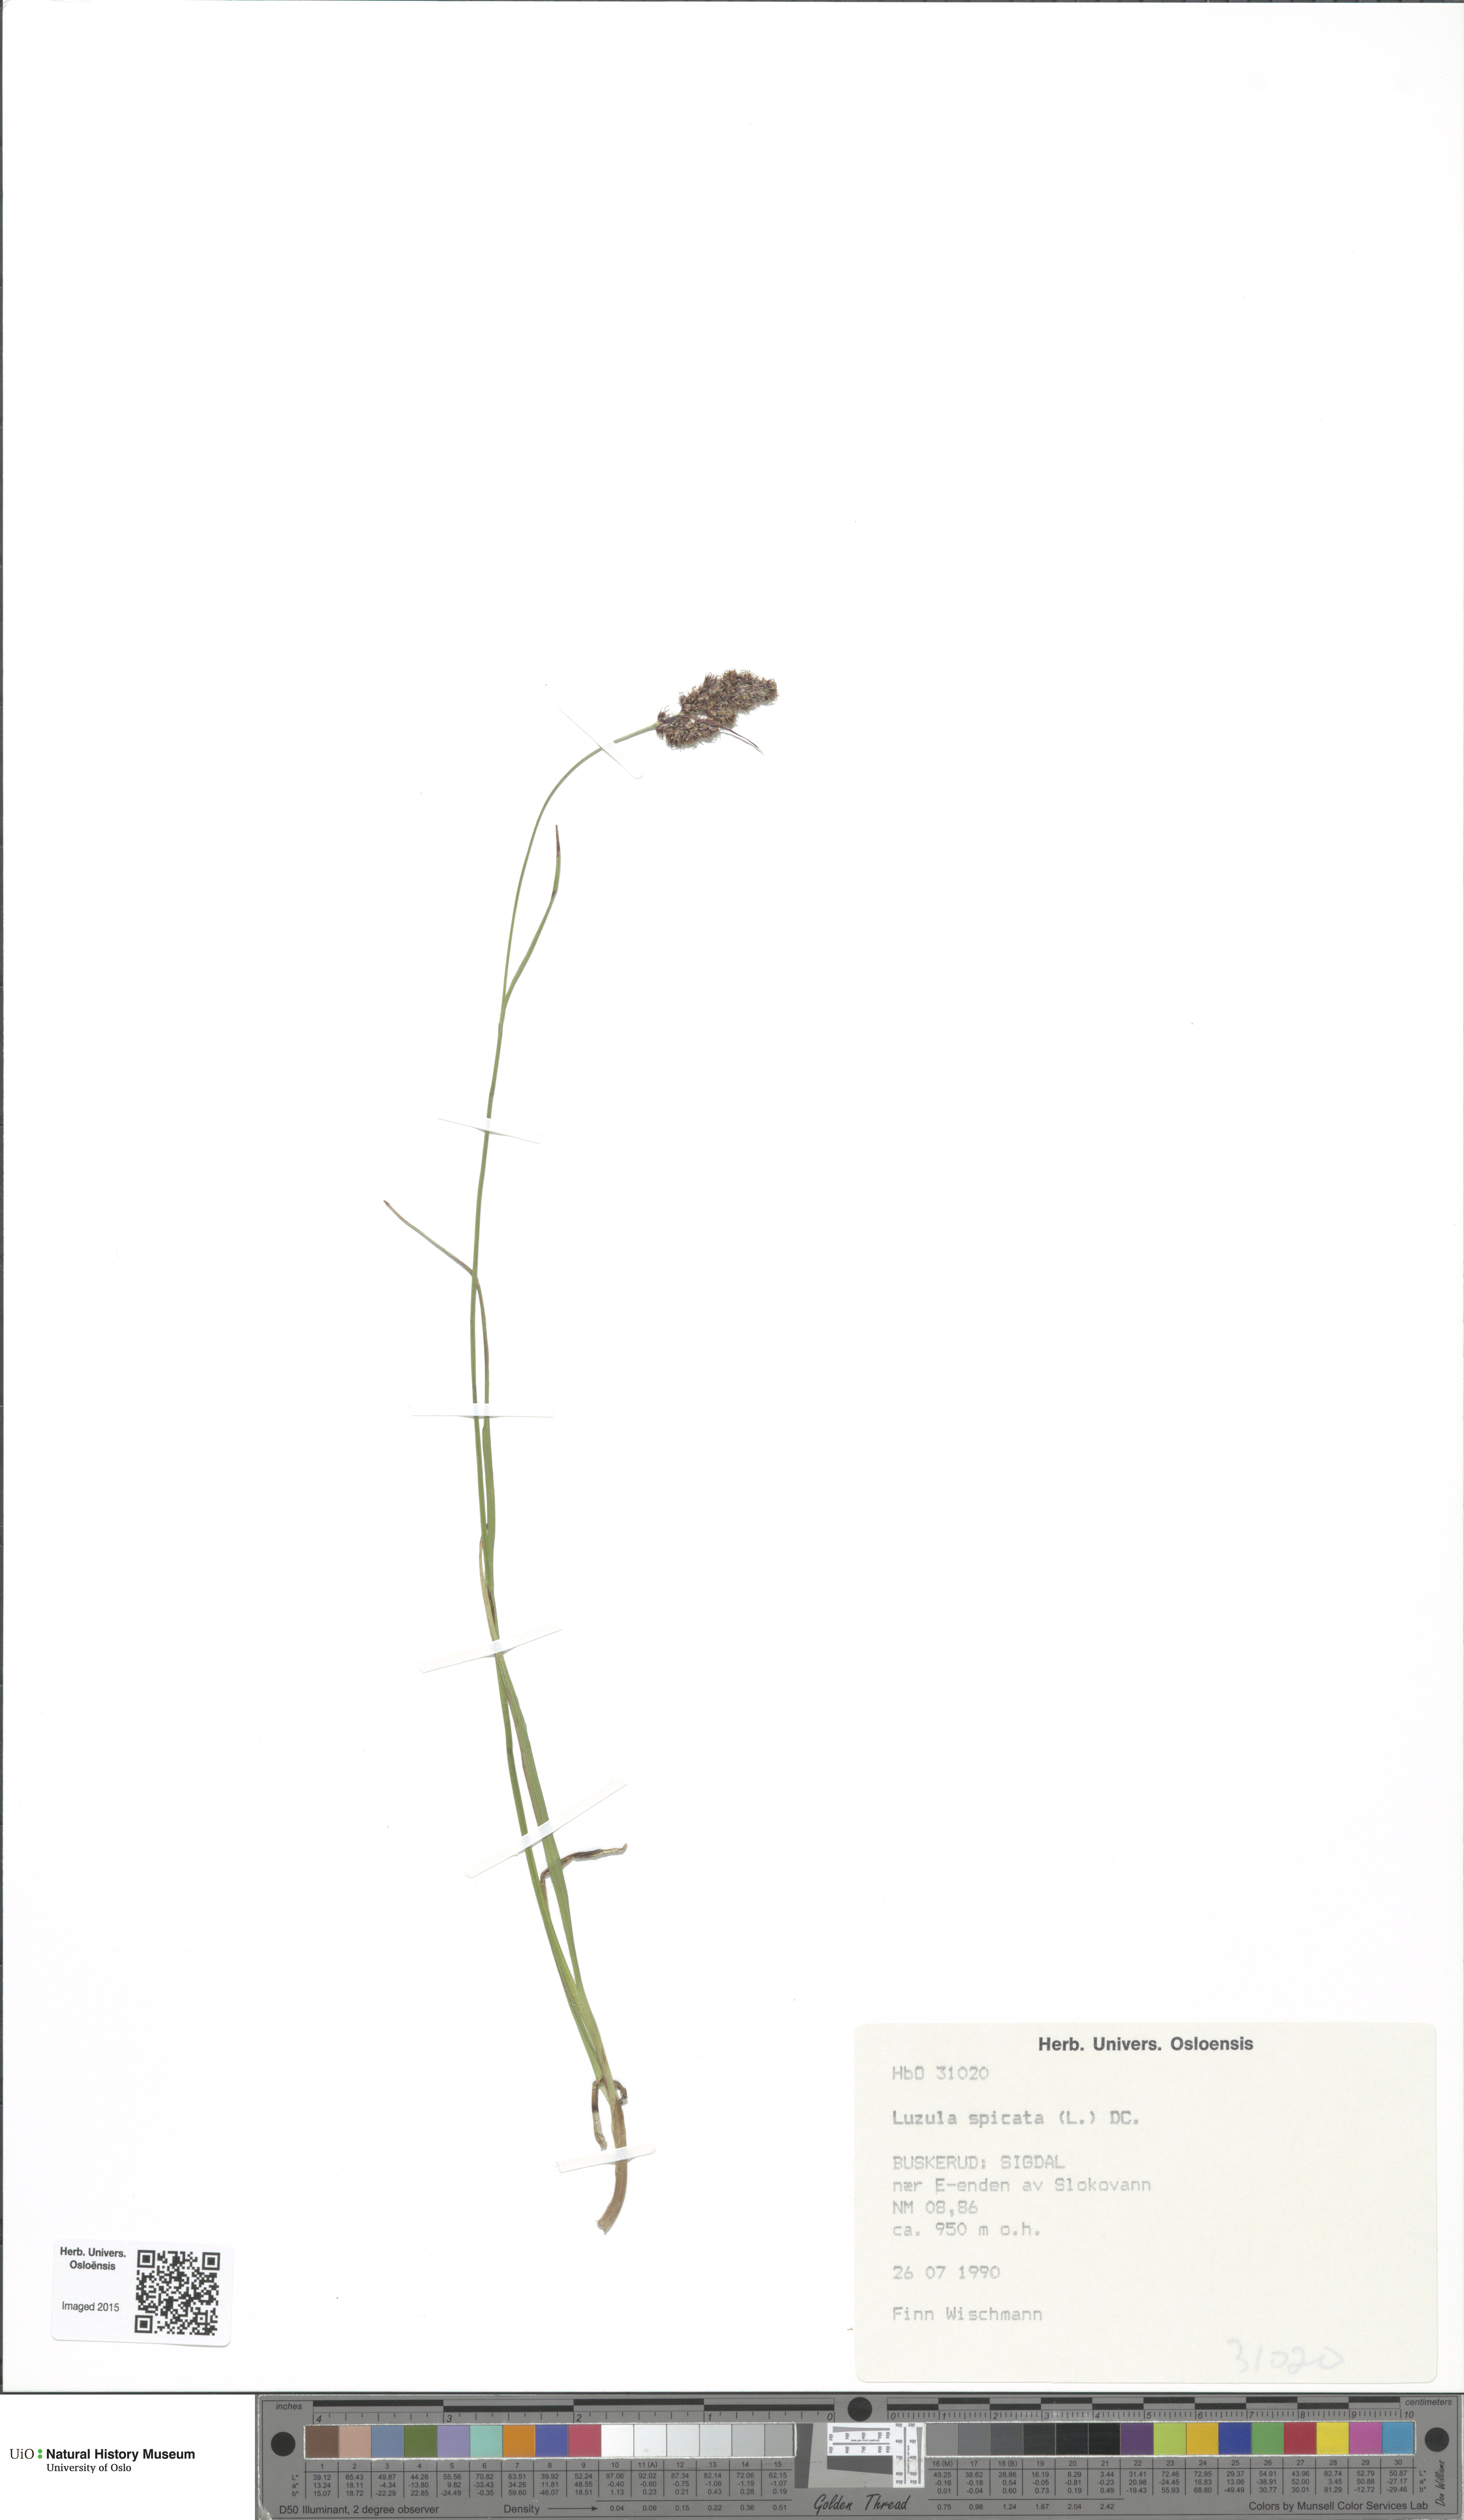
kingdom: Plantae
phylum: Tracheophyta
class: Liliopsida
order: Poales
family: Juncaceae
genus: Luzula
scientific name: Luzula spicata
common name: Spiked wood-rush
